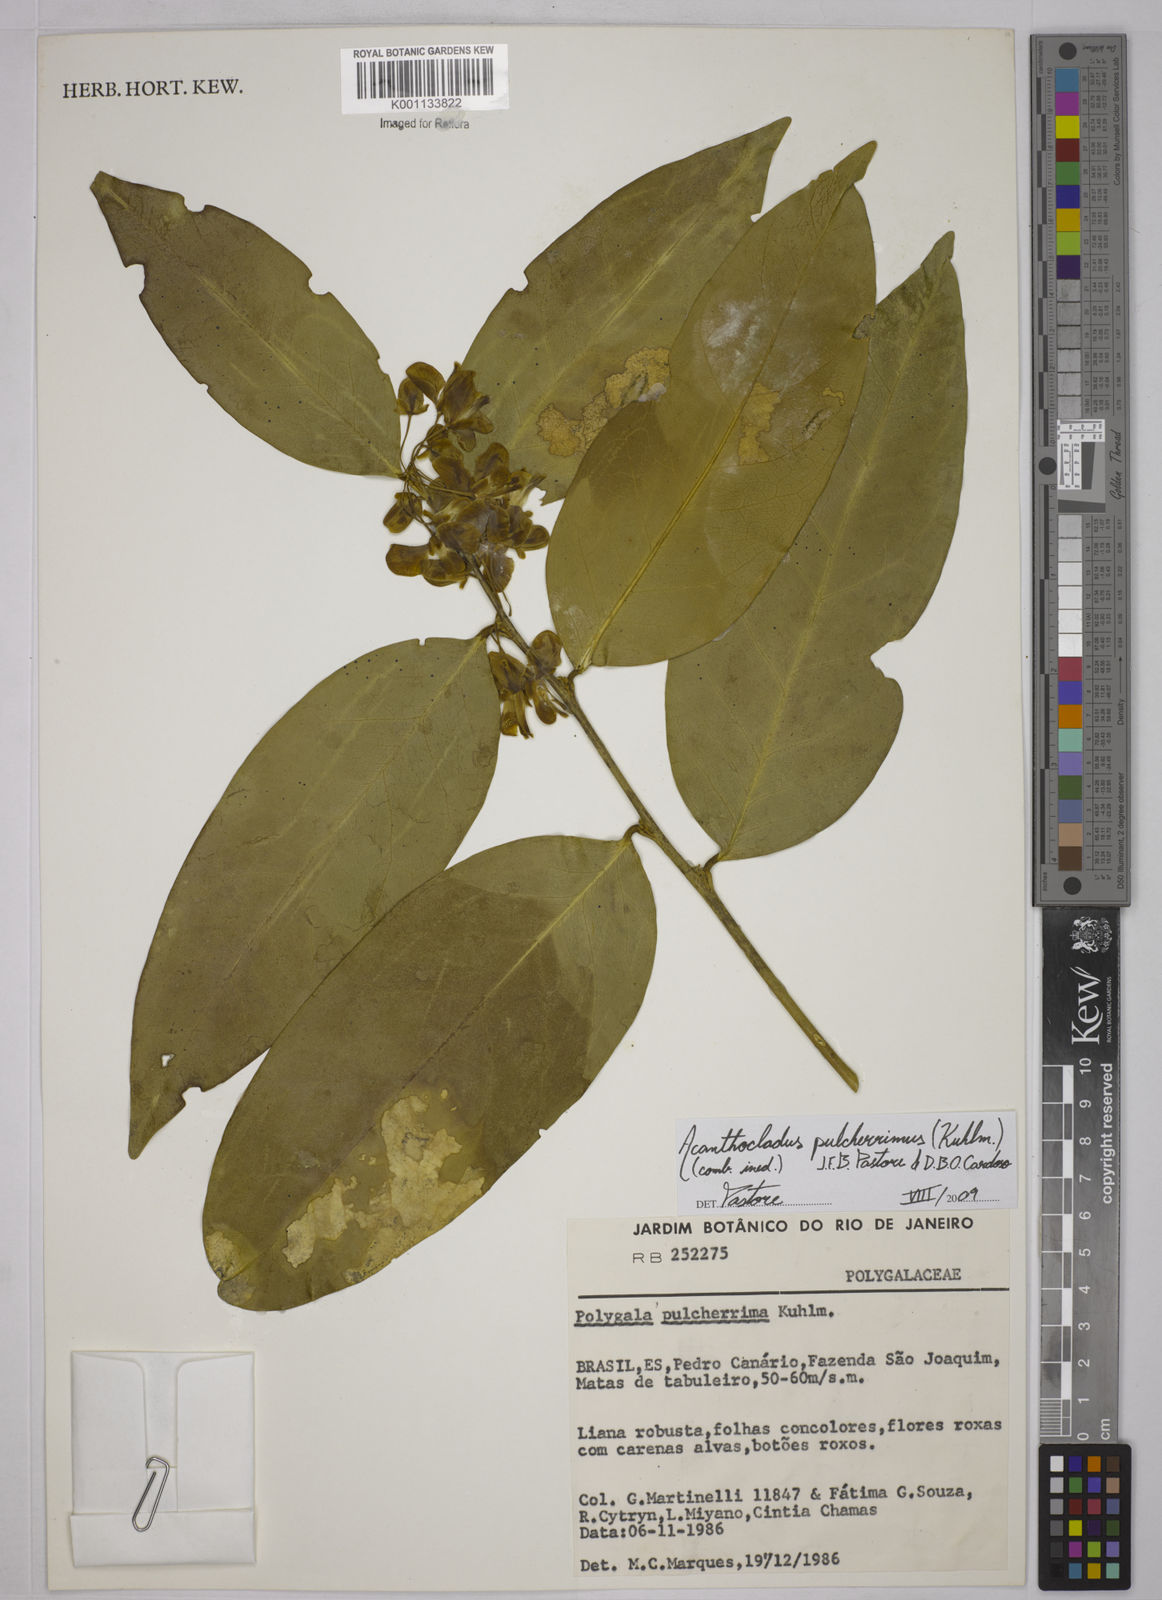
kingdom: Plantae
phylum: Tracheophyta
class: Magnoliopsida
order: Fabales
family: Polygalaceae
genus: Acanthocladus
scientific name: Acanthocladus pulcherrimus
